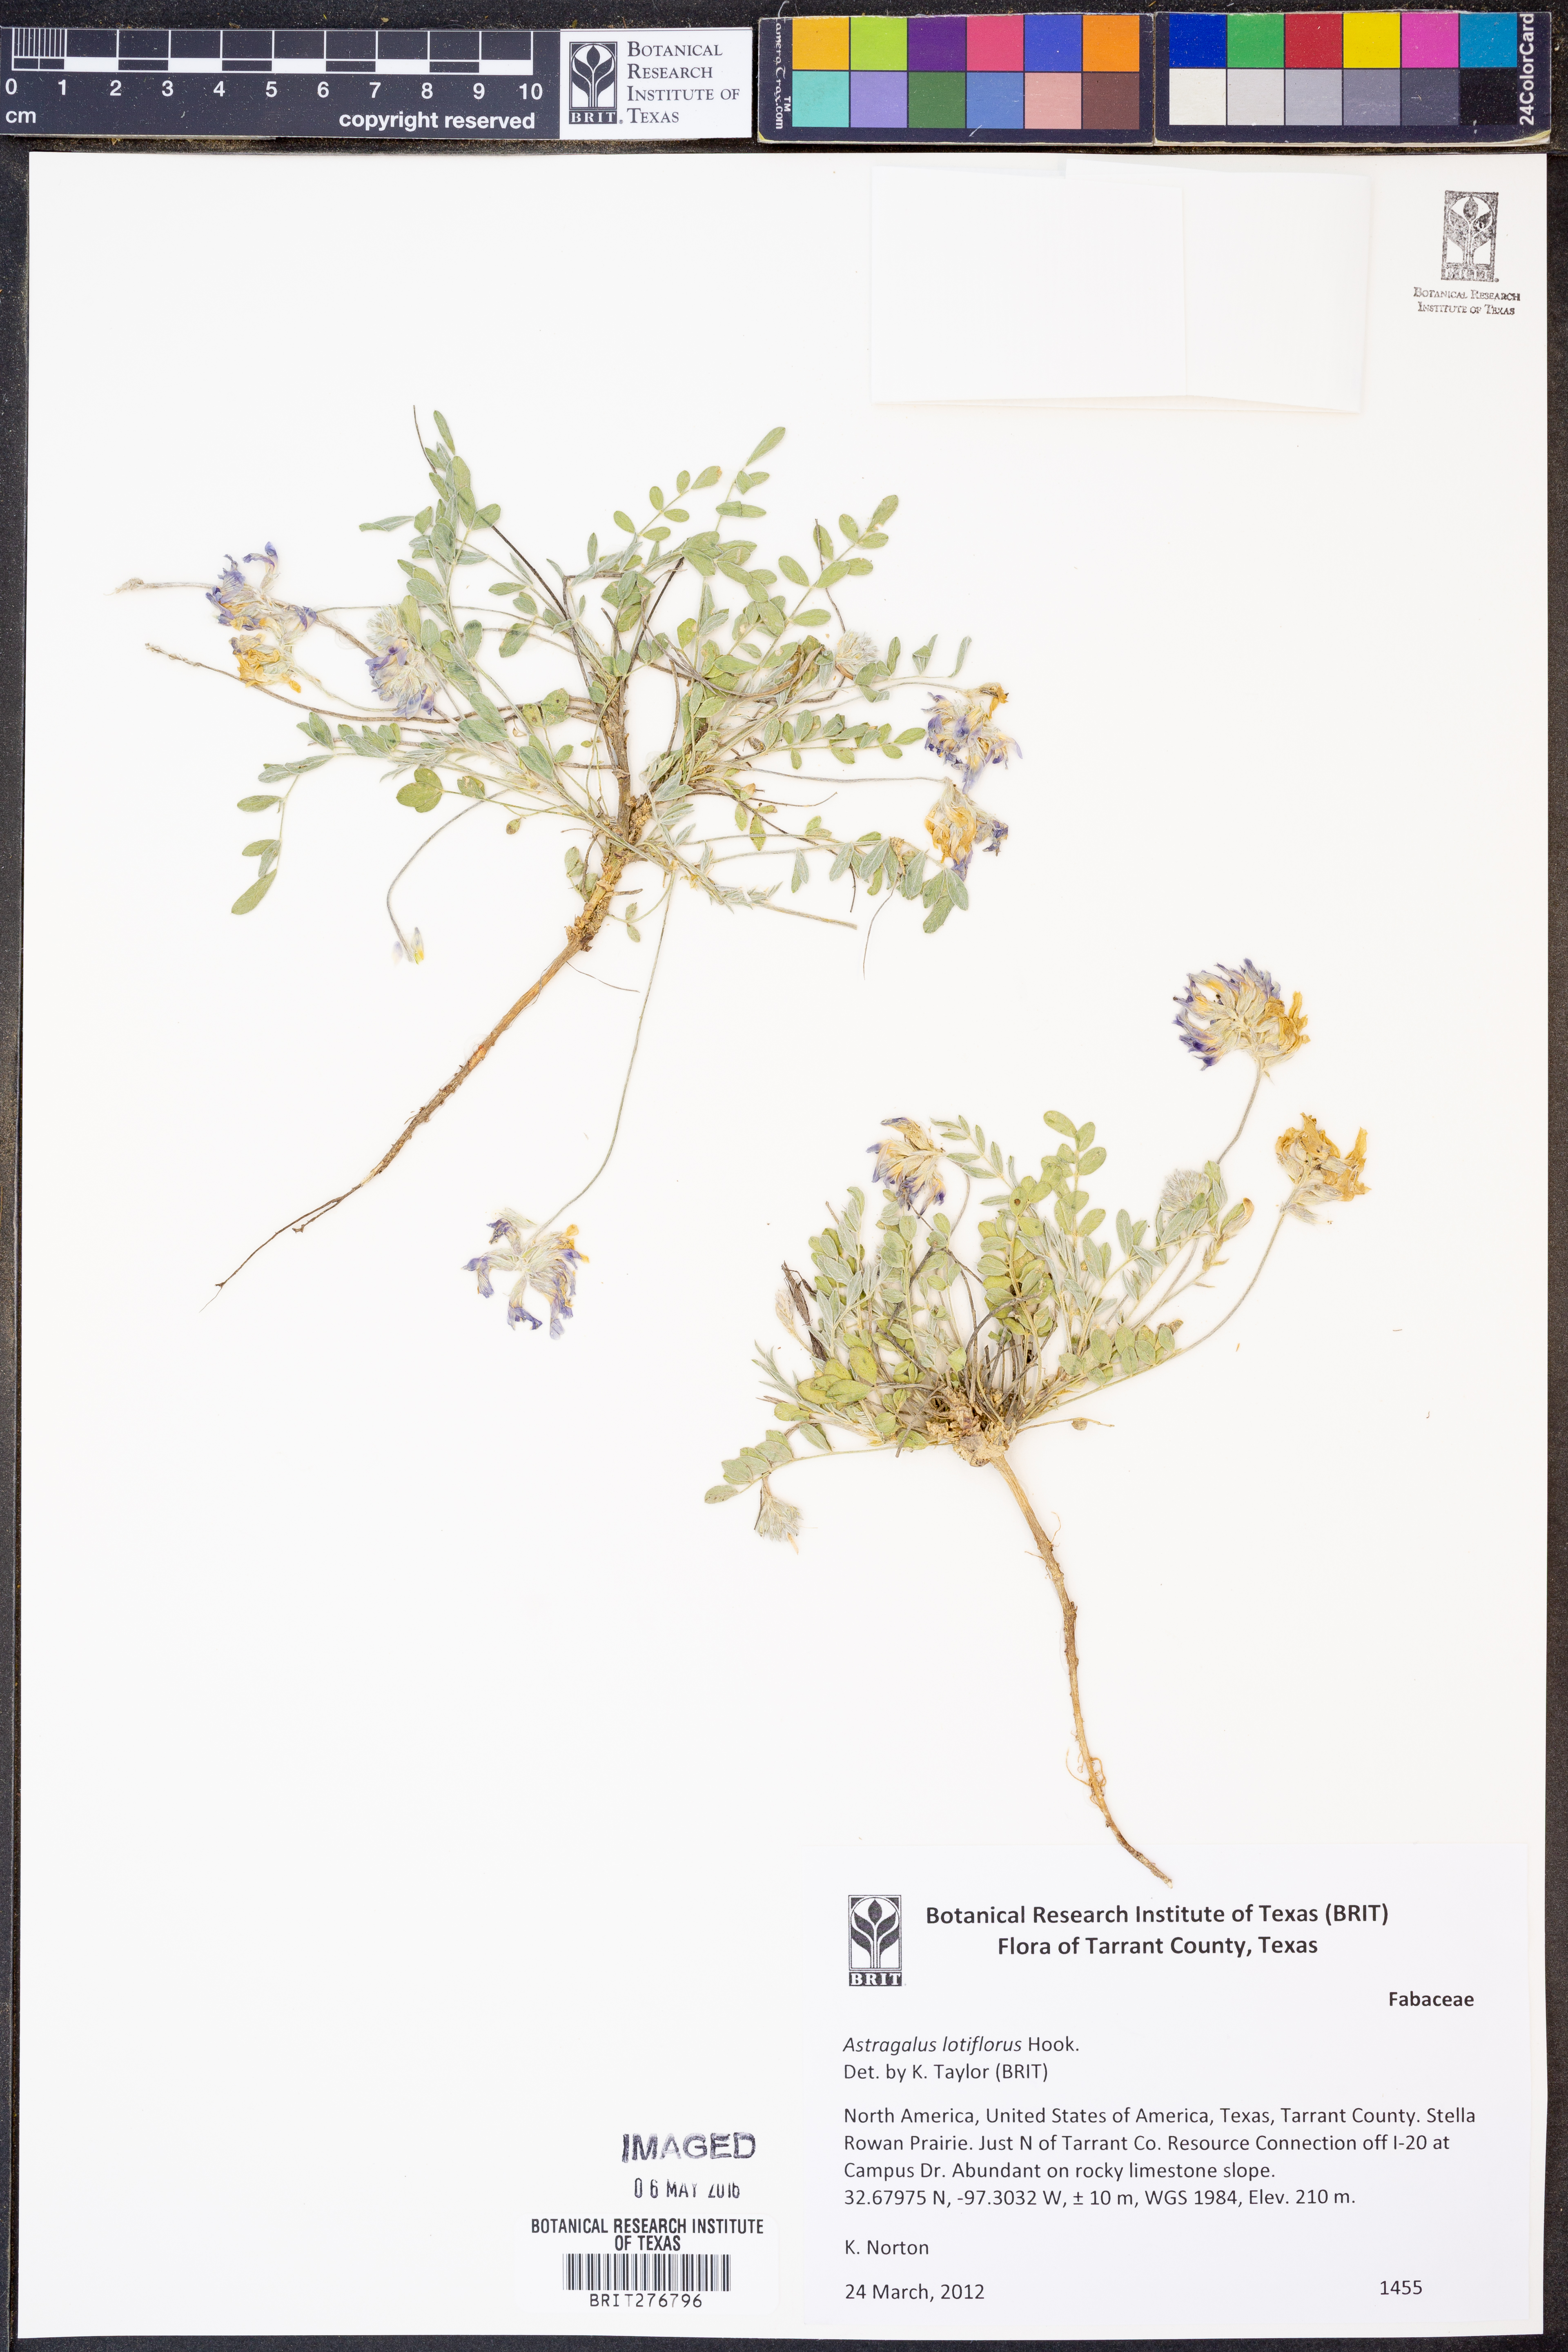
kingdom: Plantae
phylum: Tracheophyta
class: Magnoliopsida
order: Fabales
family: Fabaceae
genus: Astragalus
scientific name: Astragalus lotiflorus
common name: Lotus milk-vetch
